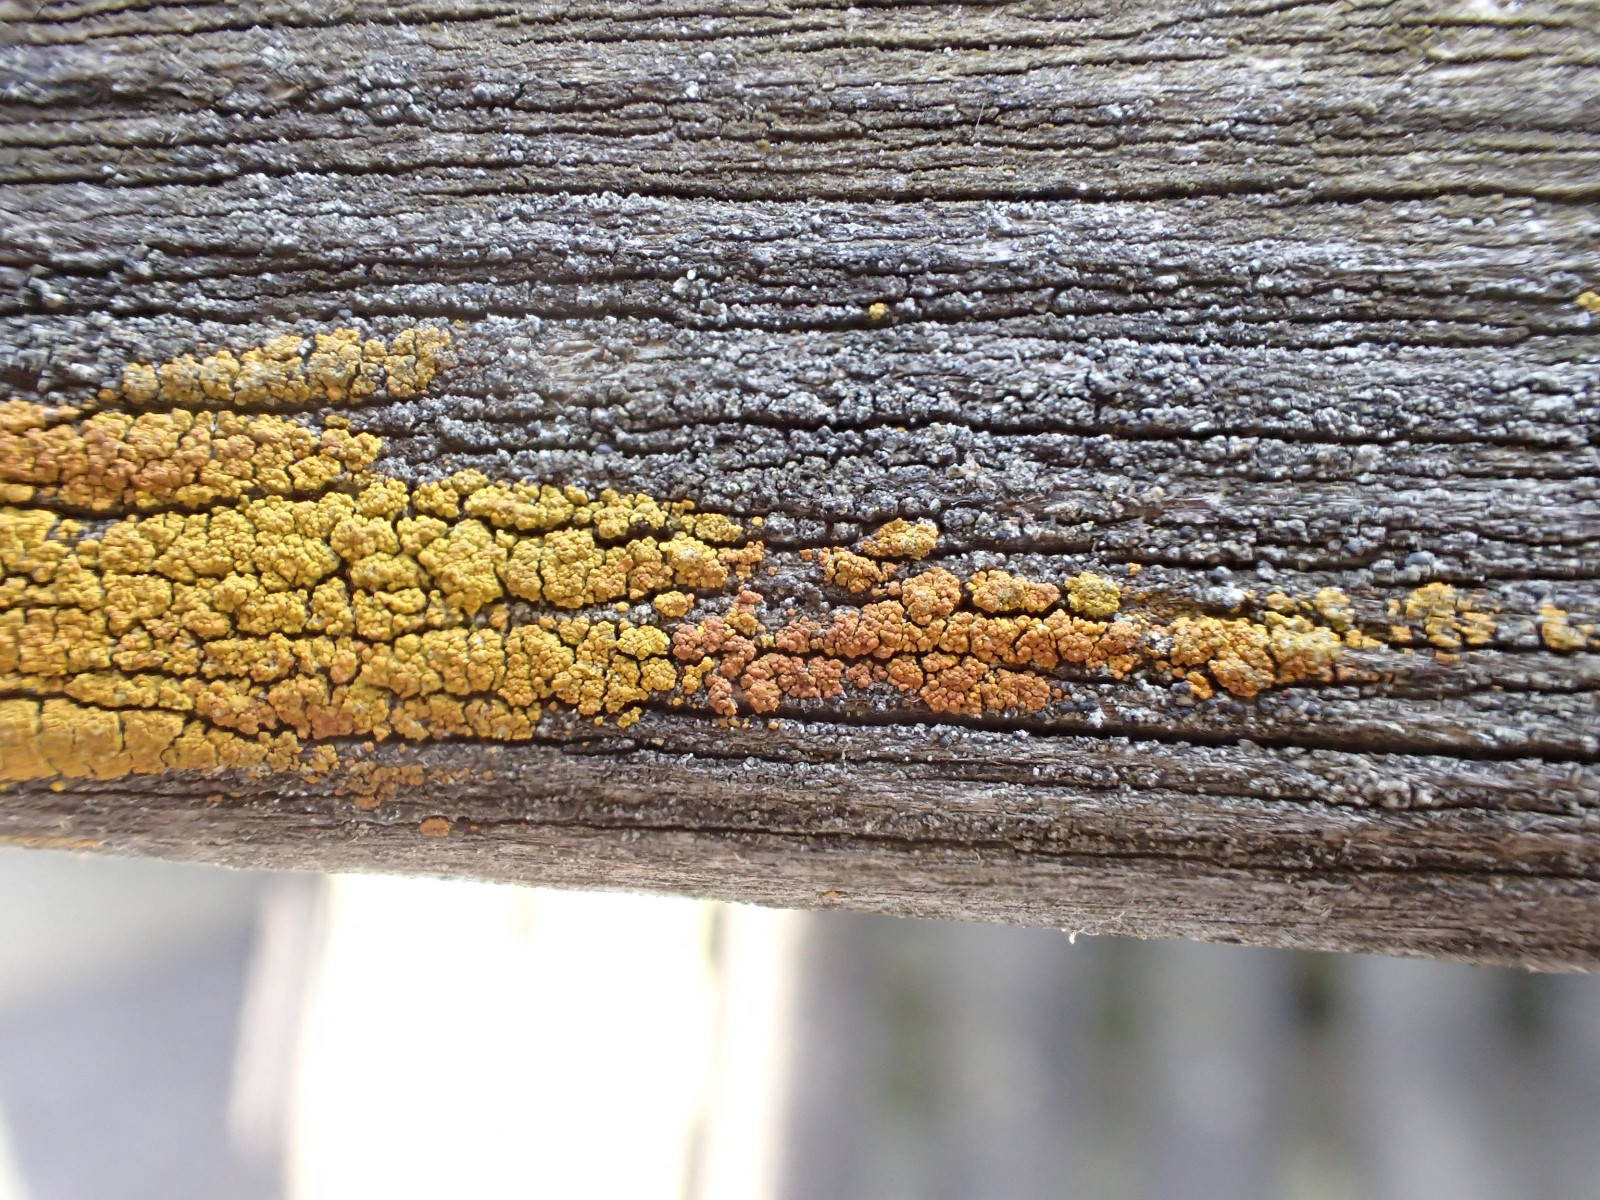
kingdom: Fungi
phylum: Ascomycota
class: Candelariomycetes
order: Candelariales
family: Candelariaceae
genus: Candelariella
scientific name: Candelariella xanthostigma
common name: kornet æggeblommelav
